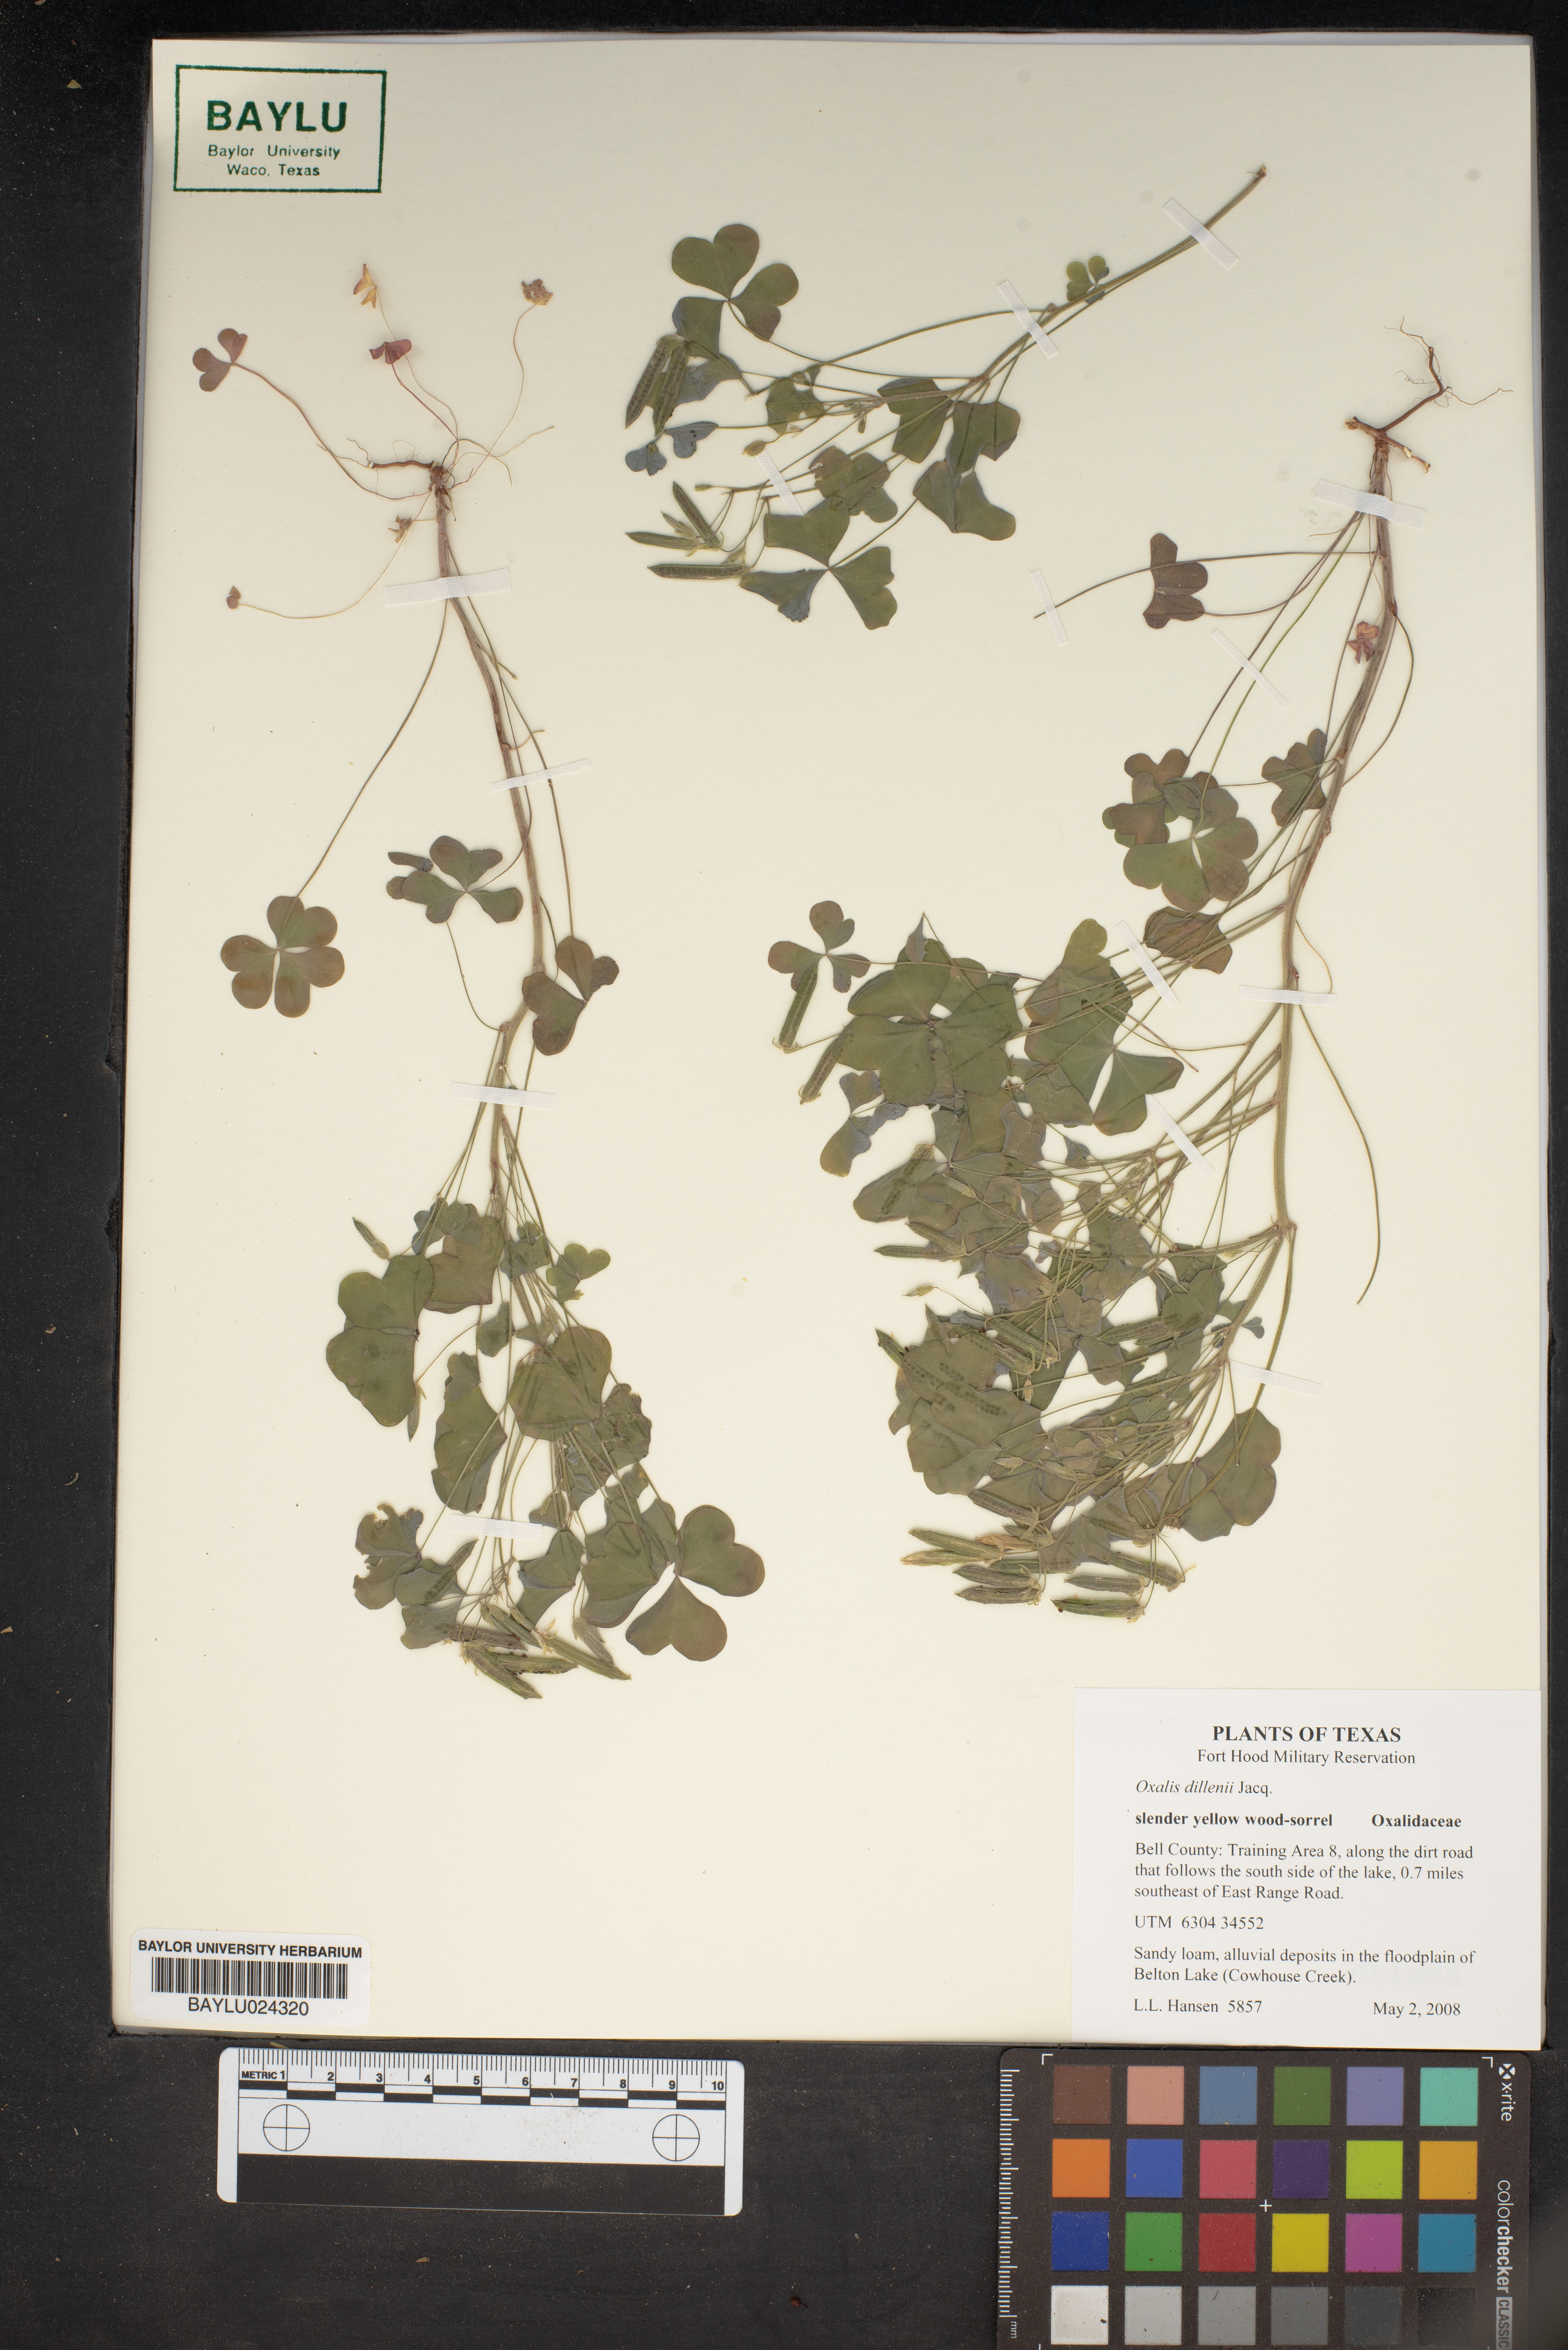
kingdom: Plantae
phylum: Tracheophyta
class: Magnoliopsida
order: Oxalidales
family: Oxalidaceae
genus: Oxalis
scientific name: Oxalis dillenii
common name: Sussex yellow-sorrel
